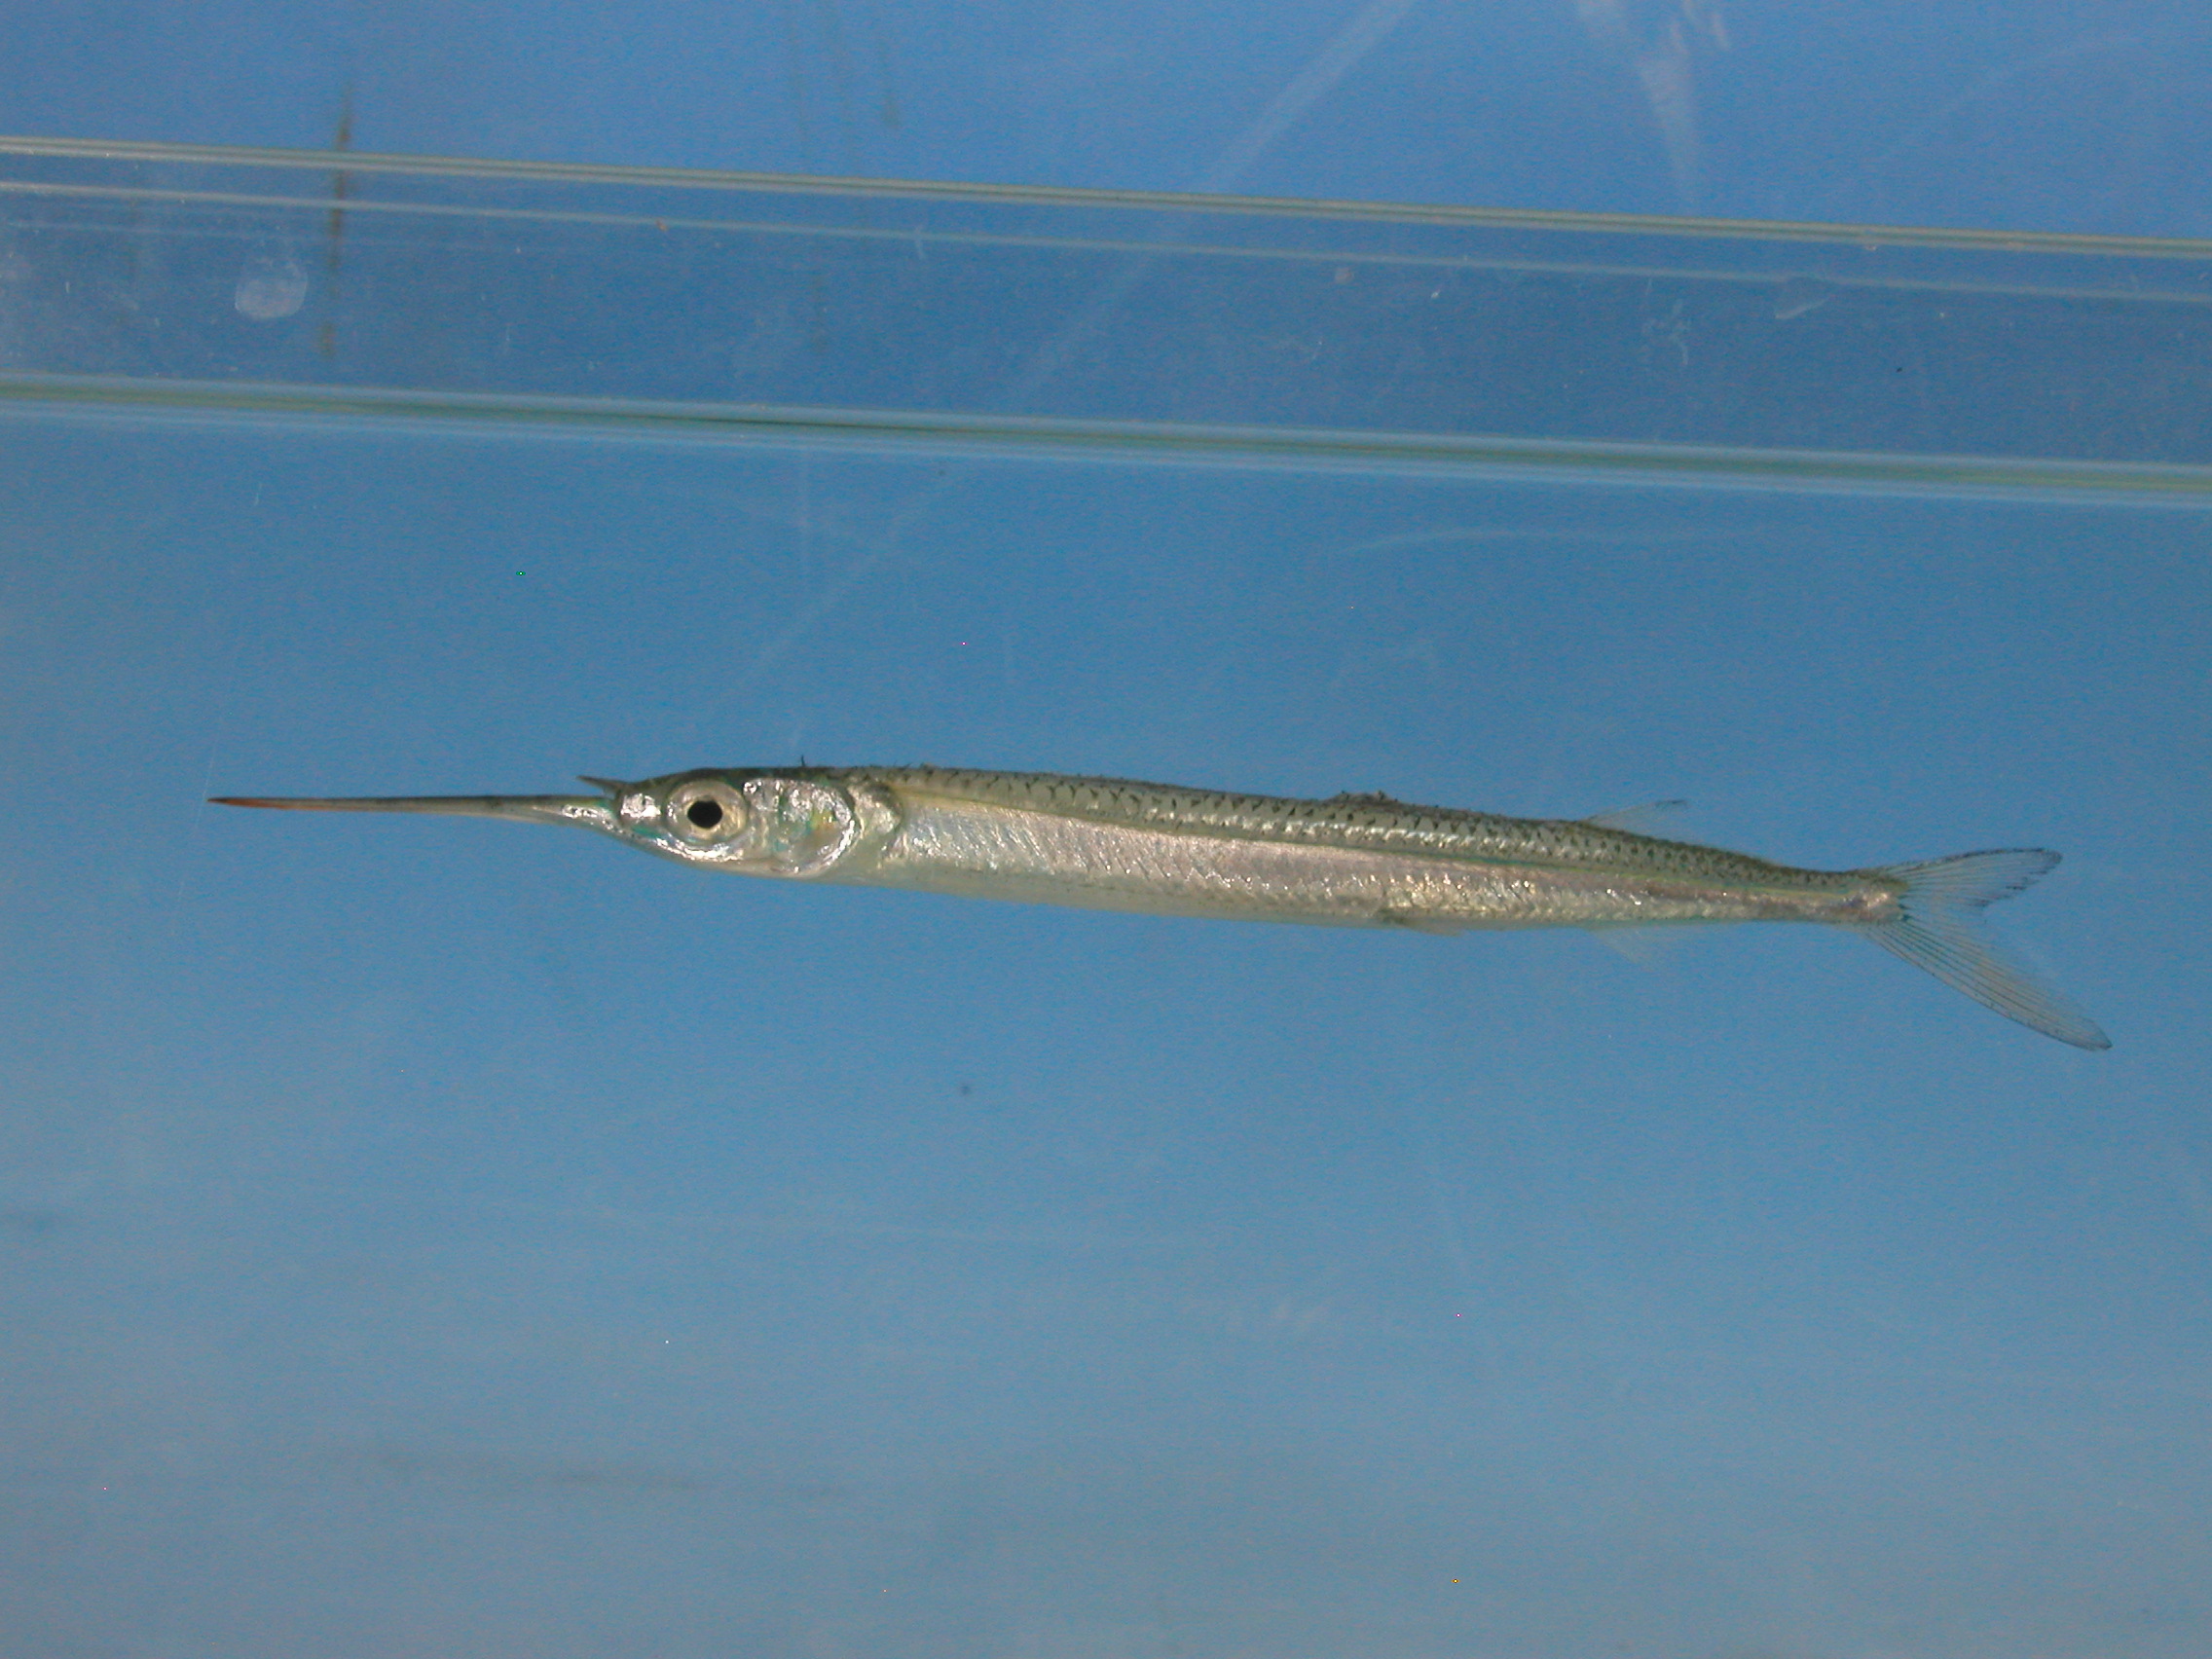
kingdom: Animalia
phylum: Chordata
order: Beloniformes
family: Hemiramphidae
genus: Hyporhamphus
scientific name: Hyporhamphus dussumieri
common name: Dussumier's halfbeak
